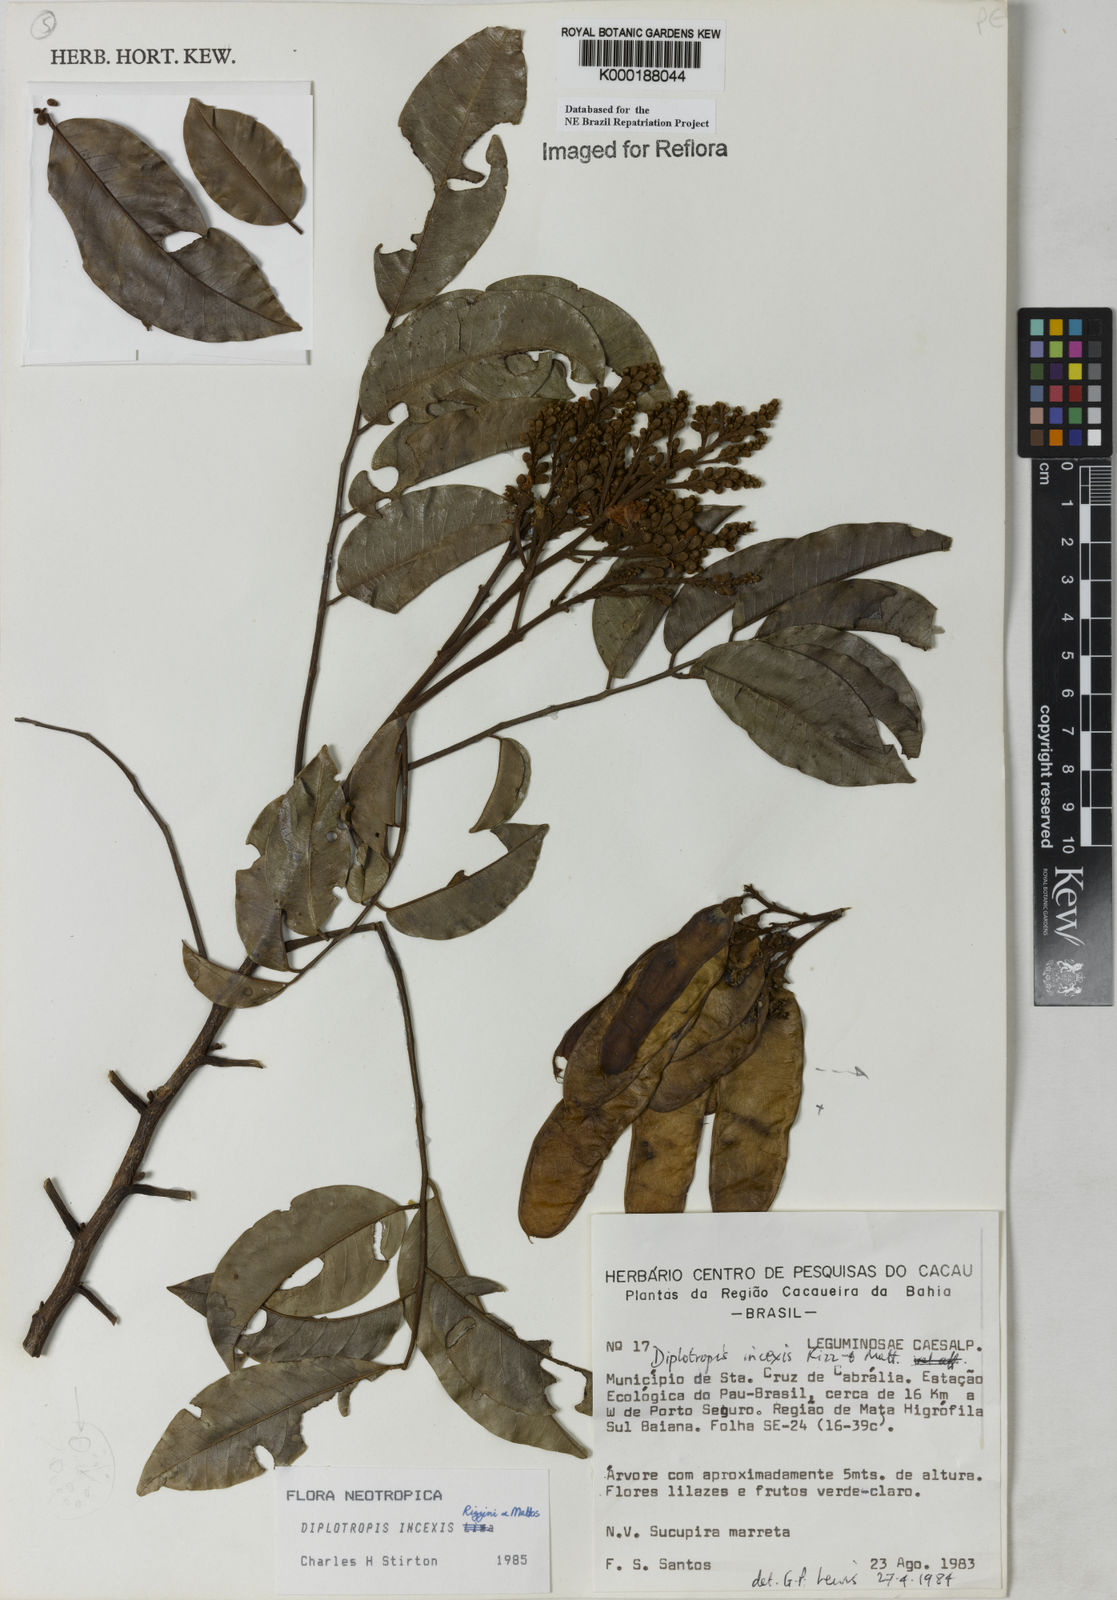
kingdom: Plantae
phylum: Tracheophyta
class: Magnoliopsida
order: Fabales
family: Fabaceae
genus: Diplotropis
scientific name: Diplotropis incexis
